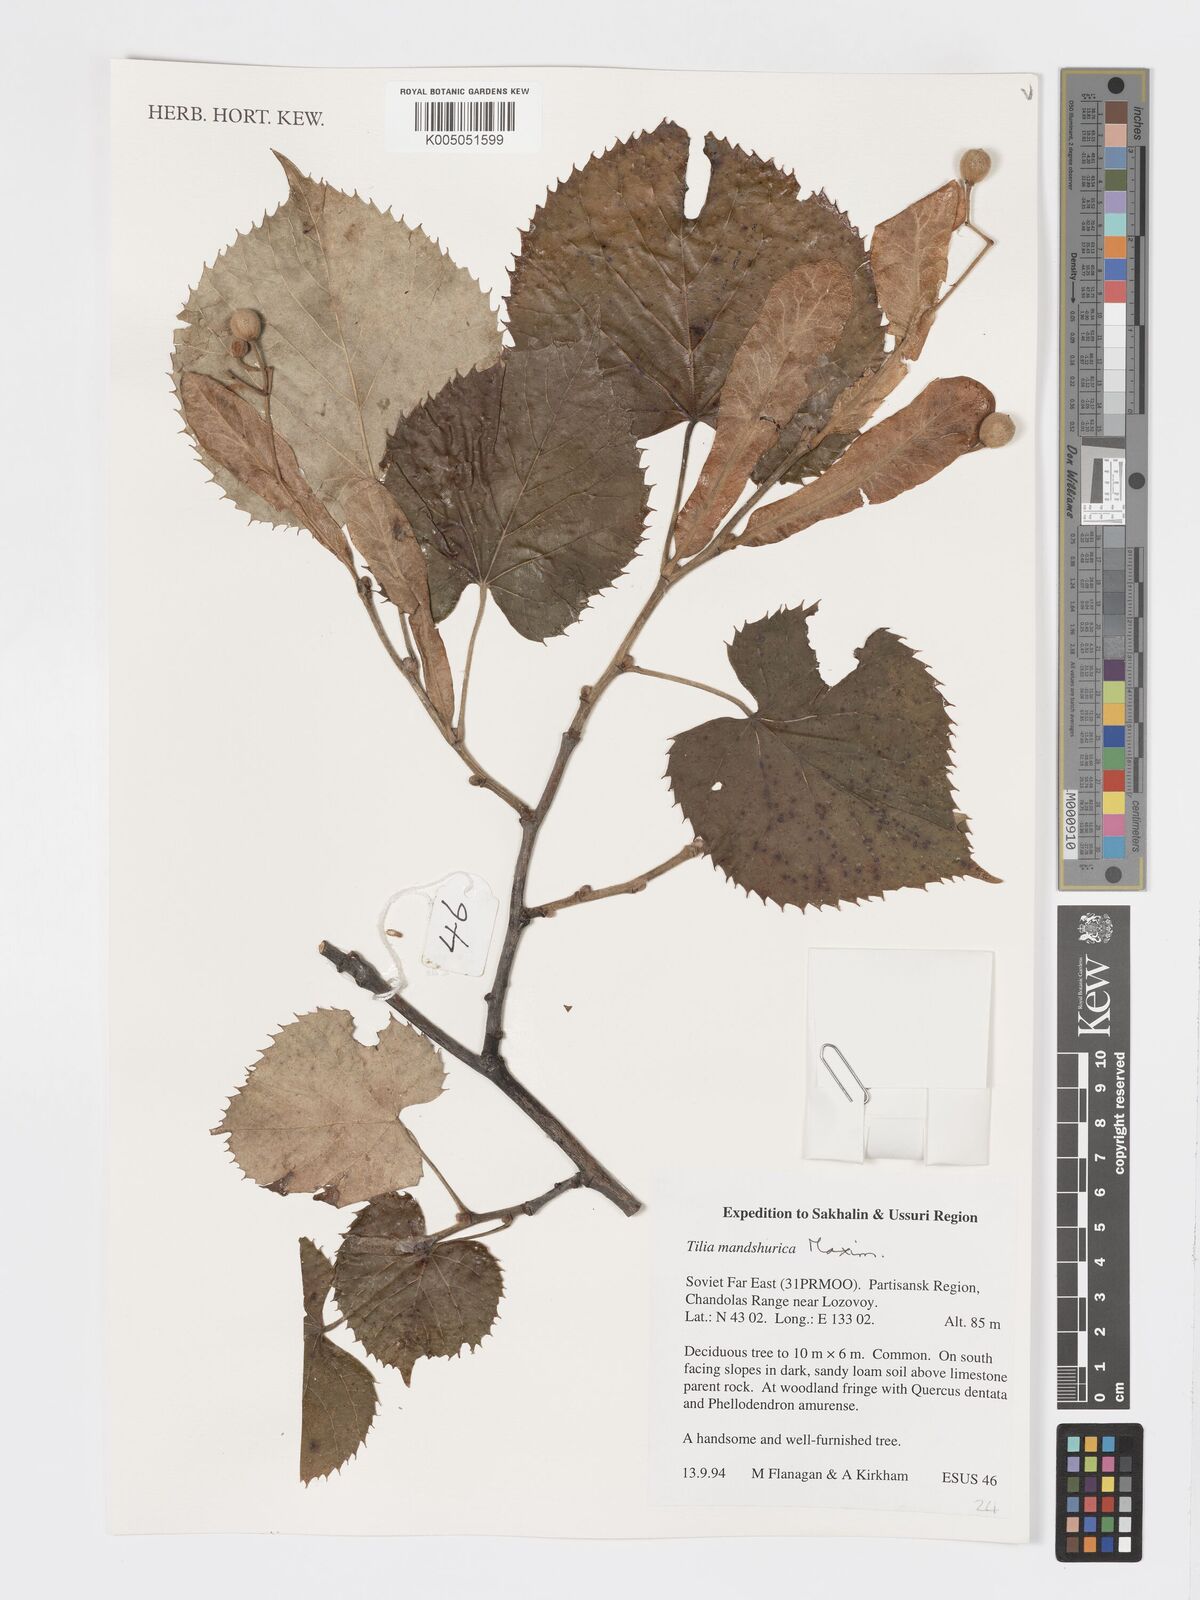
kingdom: Plantae
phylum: Tracheophyta
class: Magnoliopsida
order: Malvales
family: Malvaceae
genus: Tilia
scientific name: Tilia mandshurica
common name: Manchurian linden
